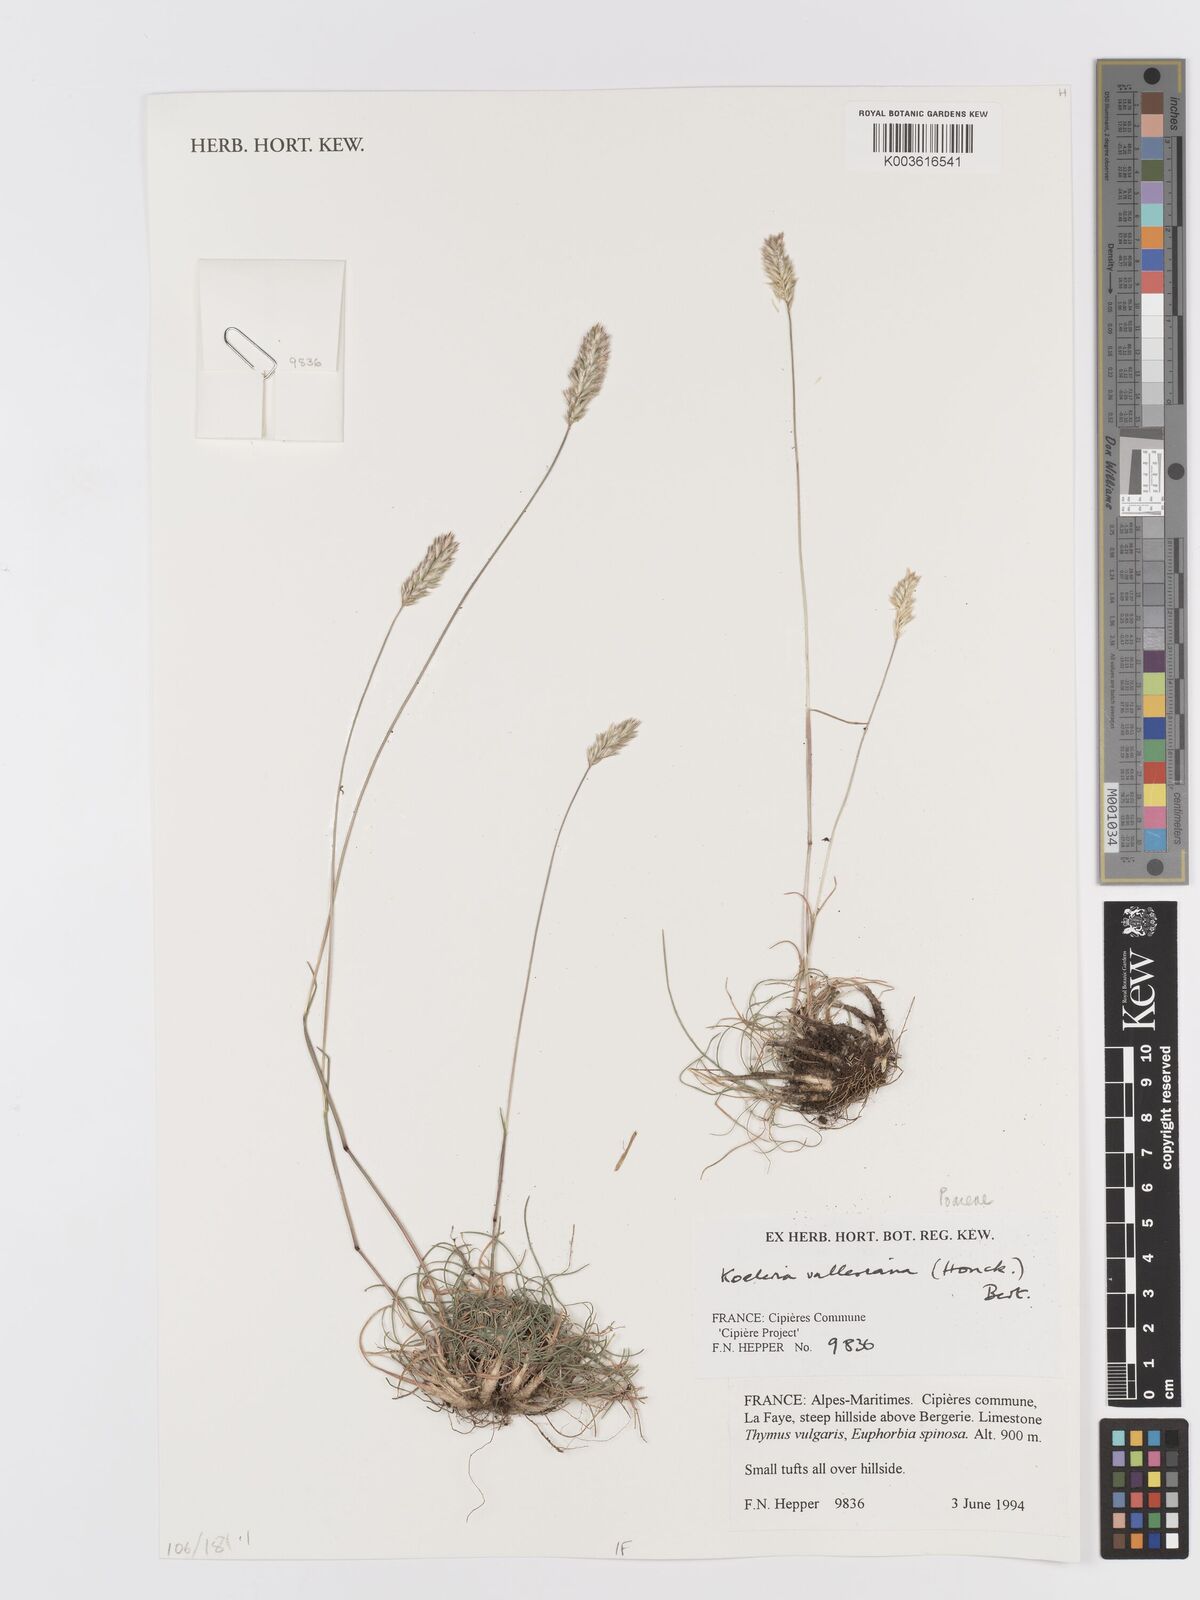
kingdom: Plantae
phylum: Tracheophyta
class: Liliopsida
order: Poales
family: Poaceae
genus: Koeleria
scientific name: Koeleria vallesiana
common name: Somerset hair-grass
